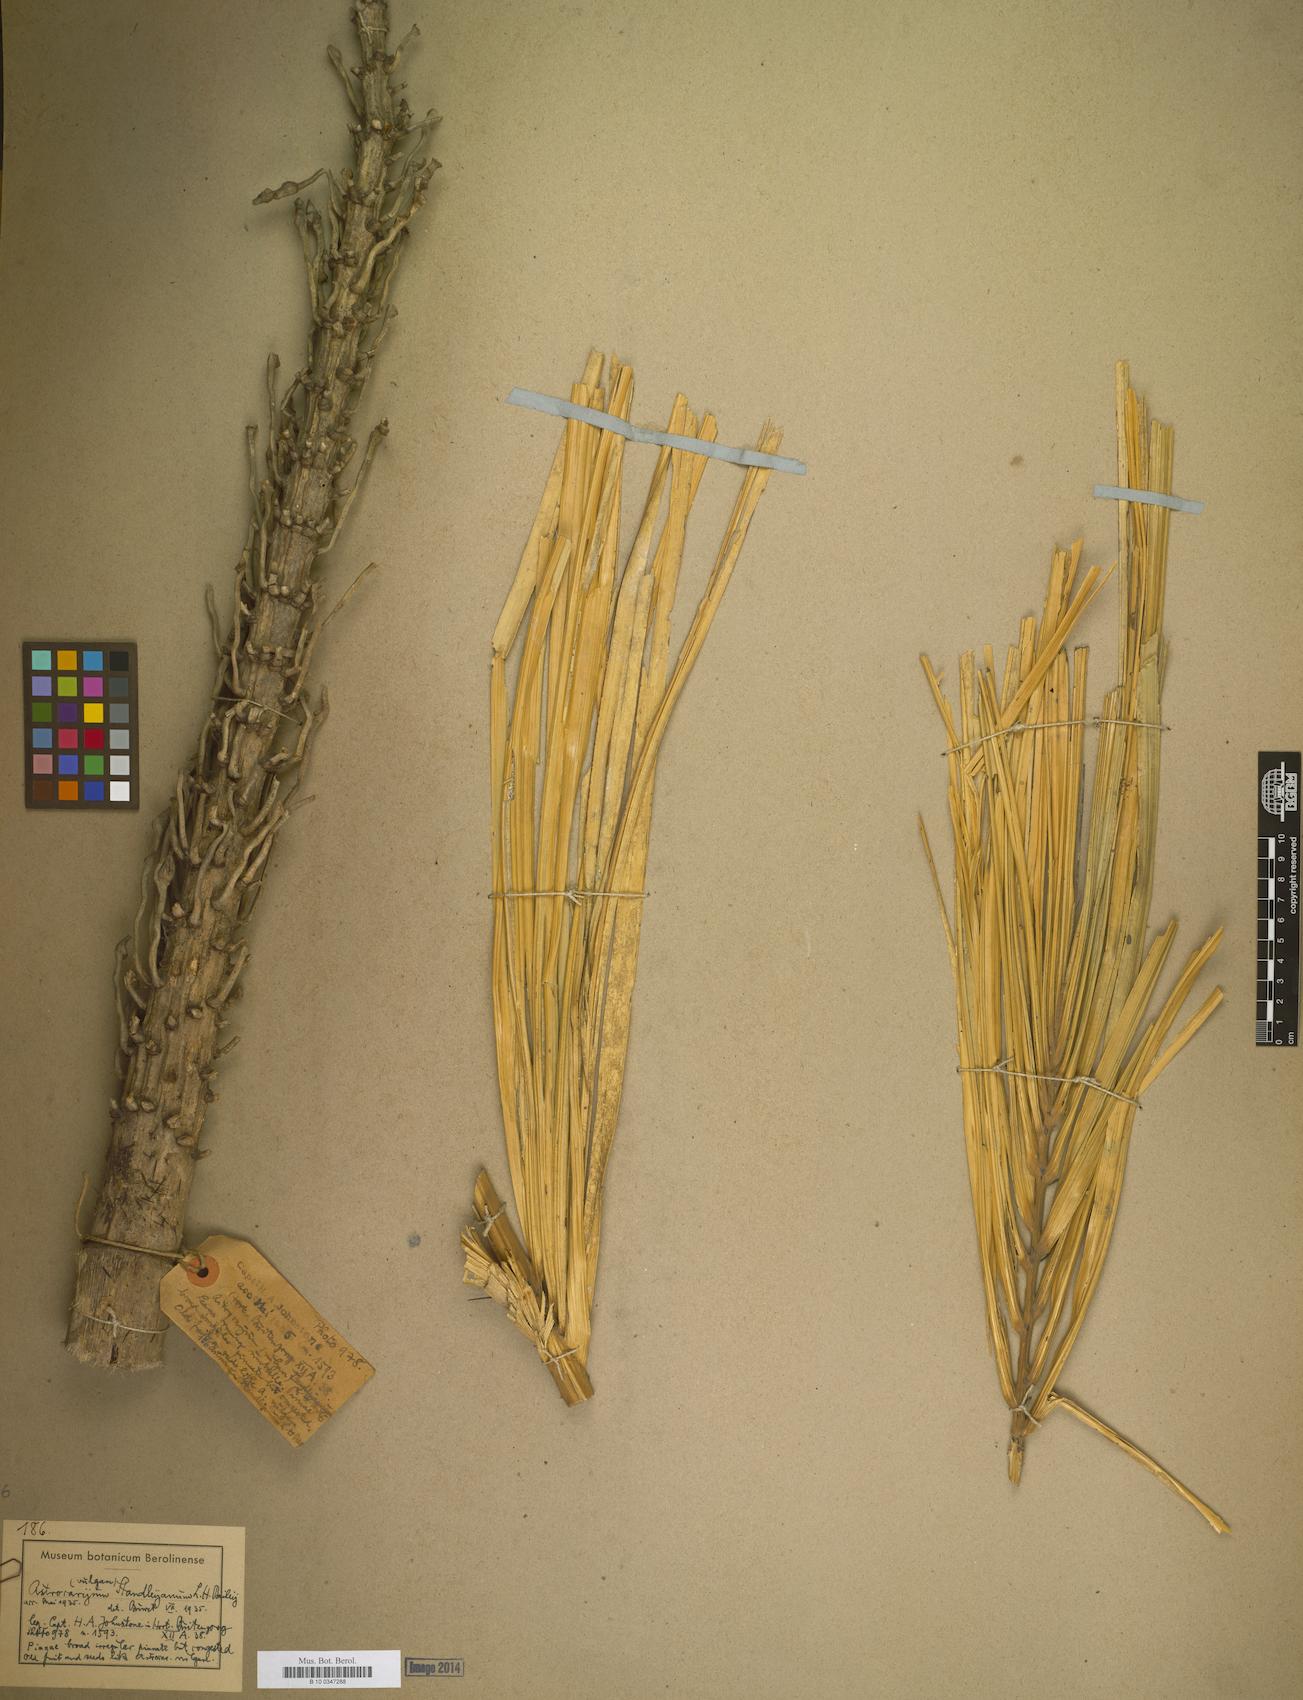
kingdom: Plantae
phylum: Tracheophyta
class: Liliopsida
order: Arecales
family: Arecaceae
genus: Astrocaryum
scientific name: Astrocaryum vulgare
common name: Tucum palm
